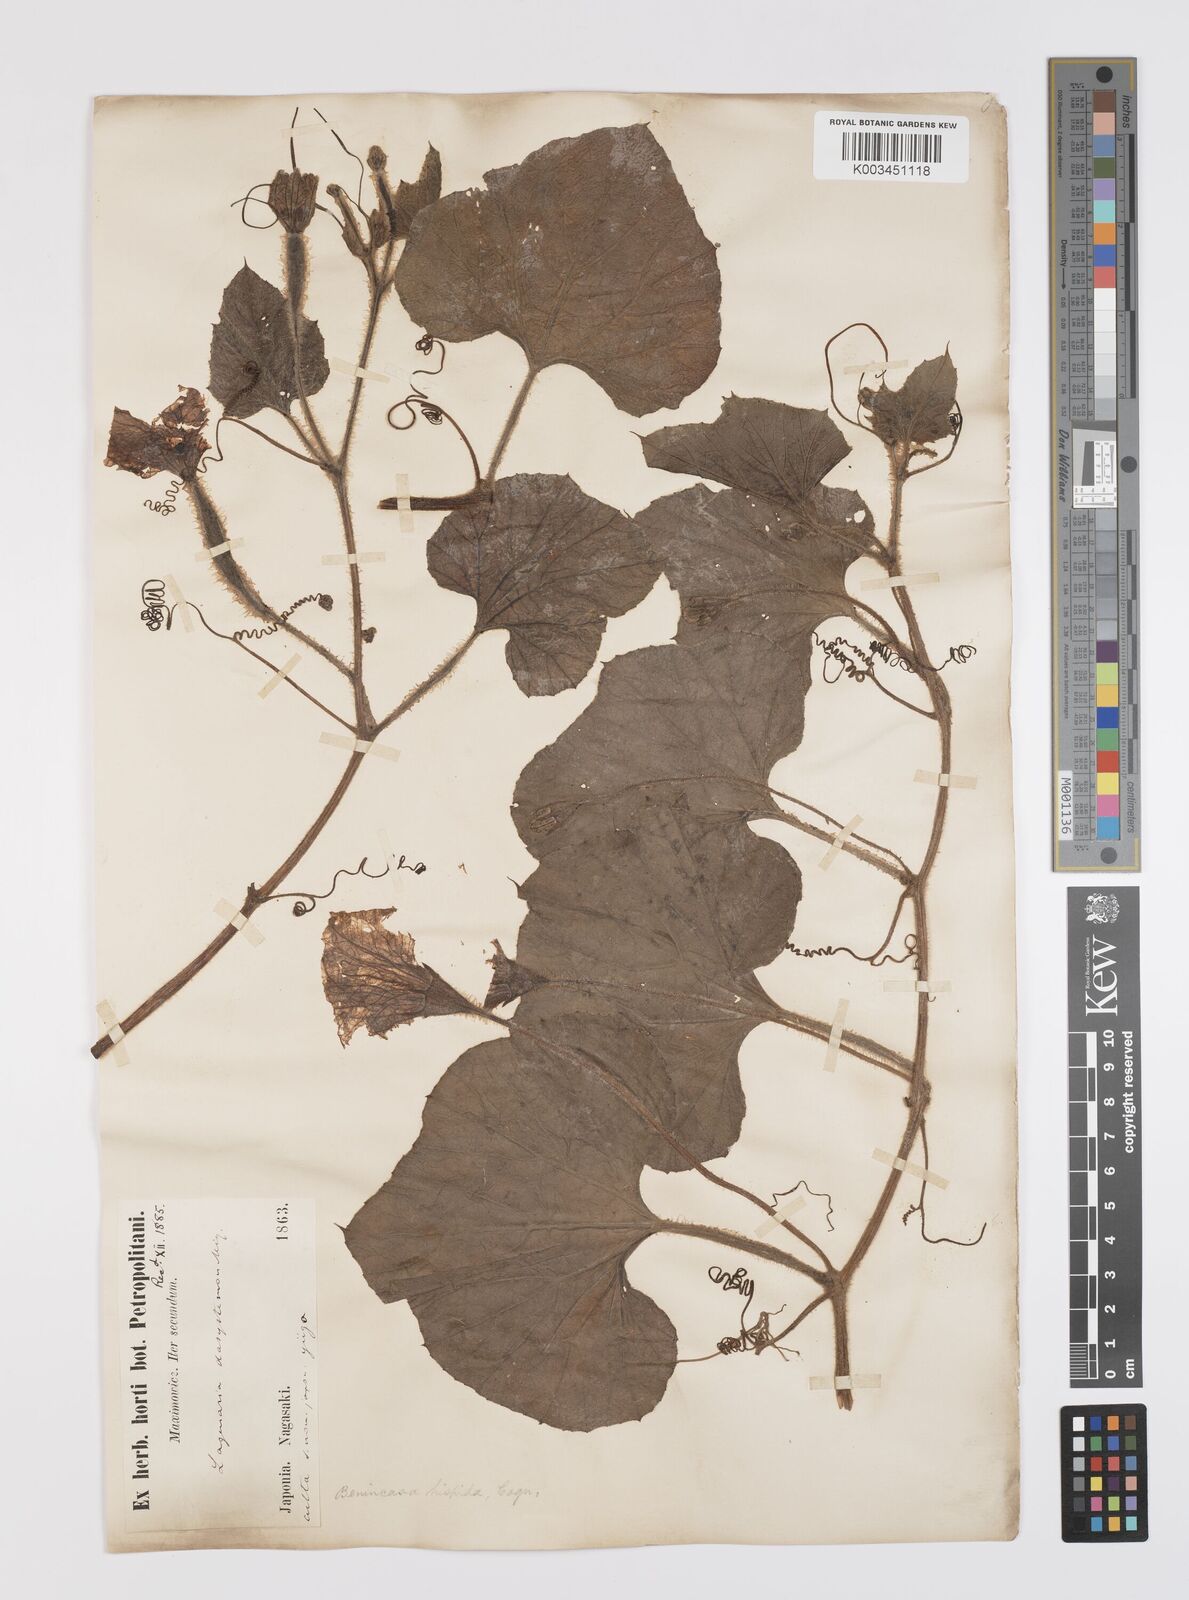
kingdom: Plantae
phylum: Tracheophyta
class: Magnoliopsida
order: Cucurbitales
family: Cucurbitaceae
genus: Lagenaria
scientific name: Lagenaria
